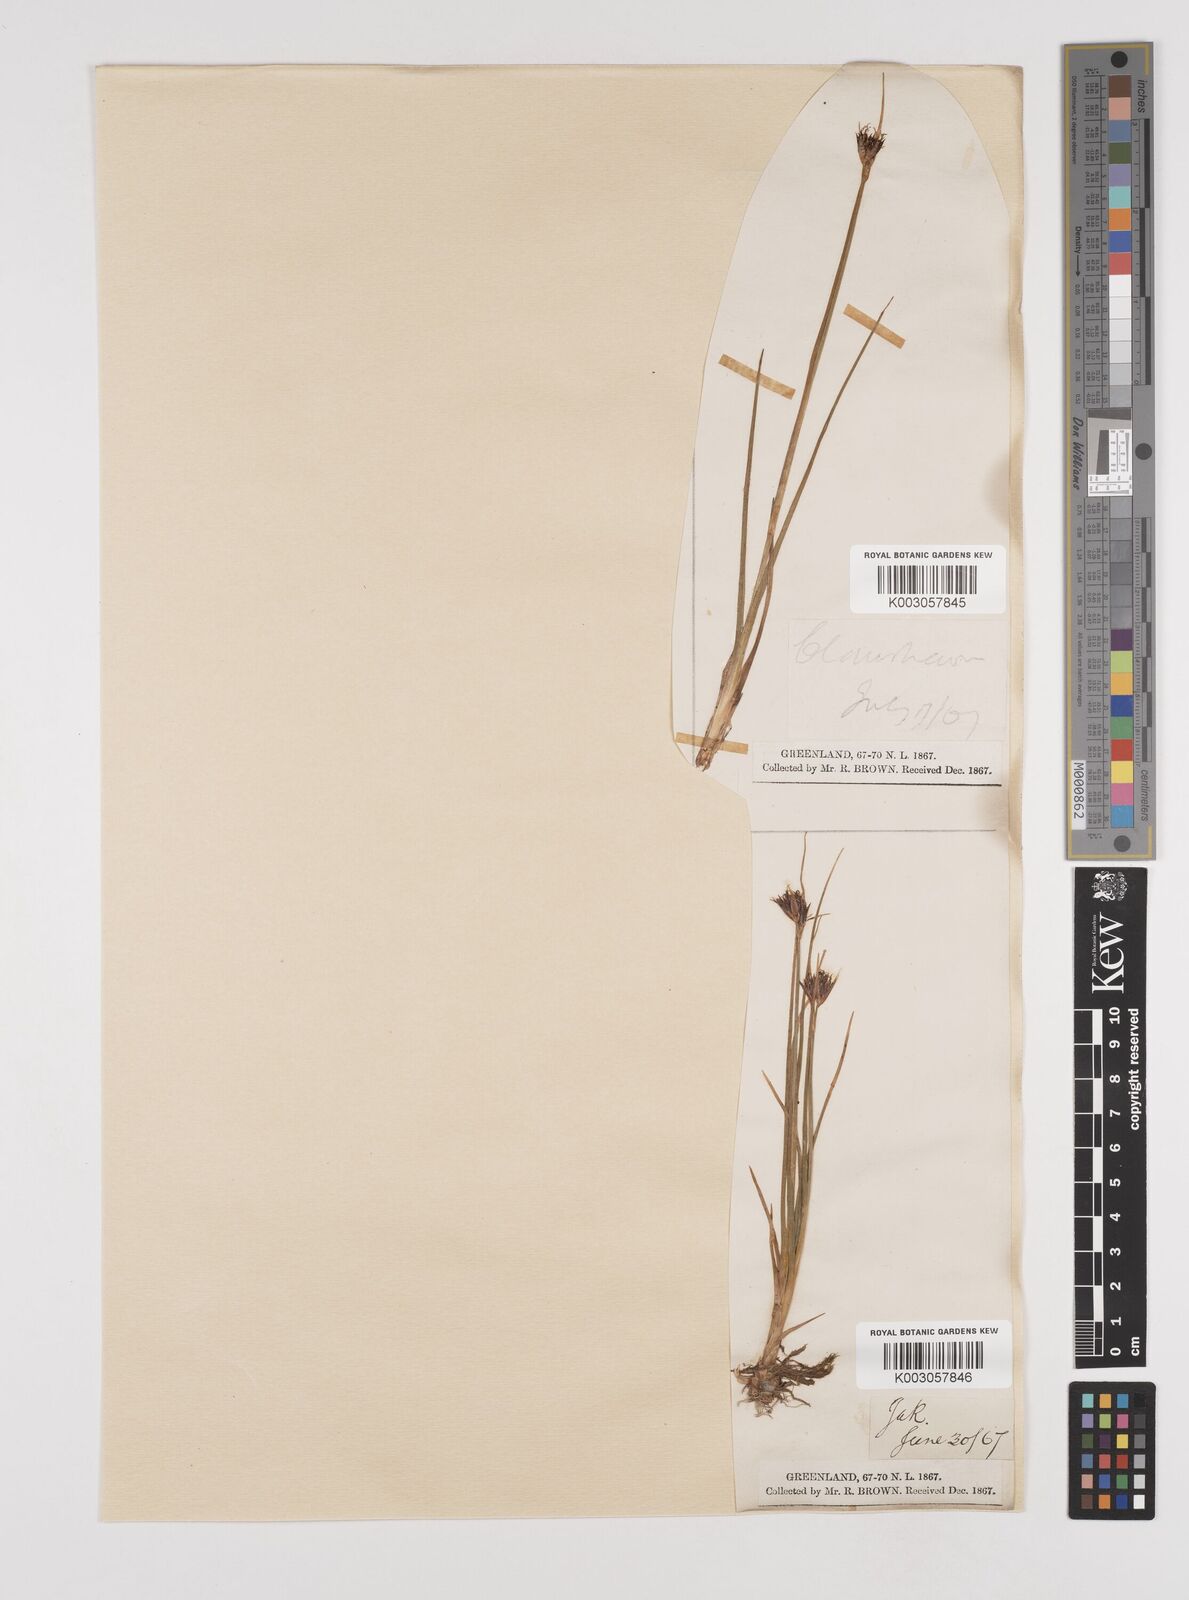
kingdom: Plantae
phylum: Tracheophyta
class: Liliopsida
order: Poales
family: Juncaceae
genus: Juncus
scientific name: Juncus castaneus
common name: Chestnut rush
